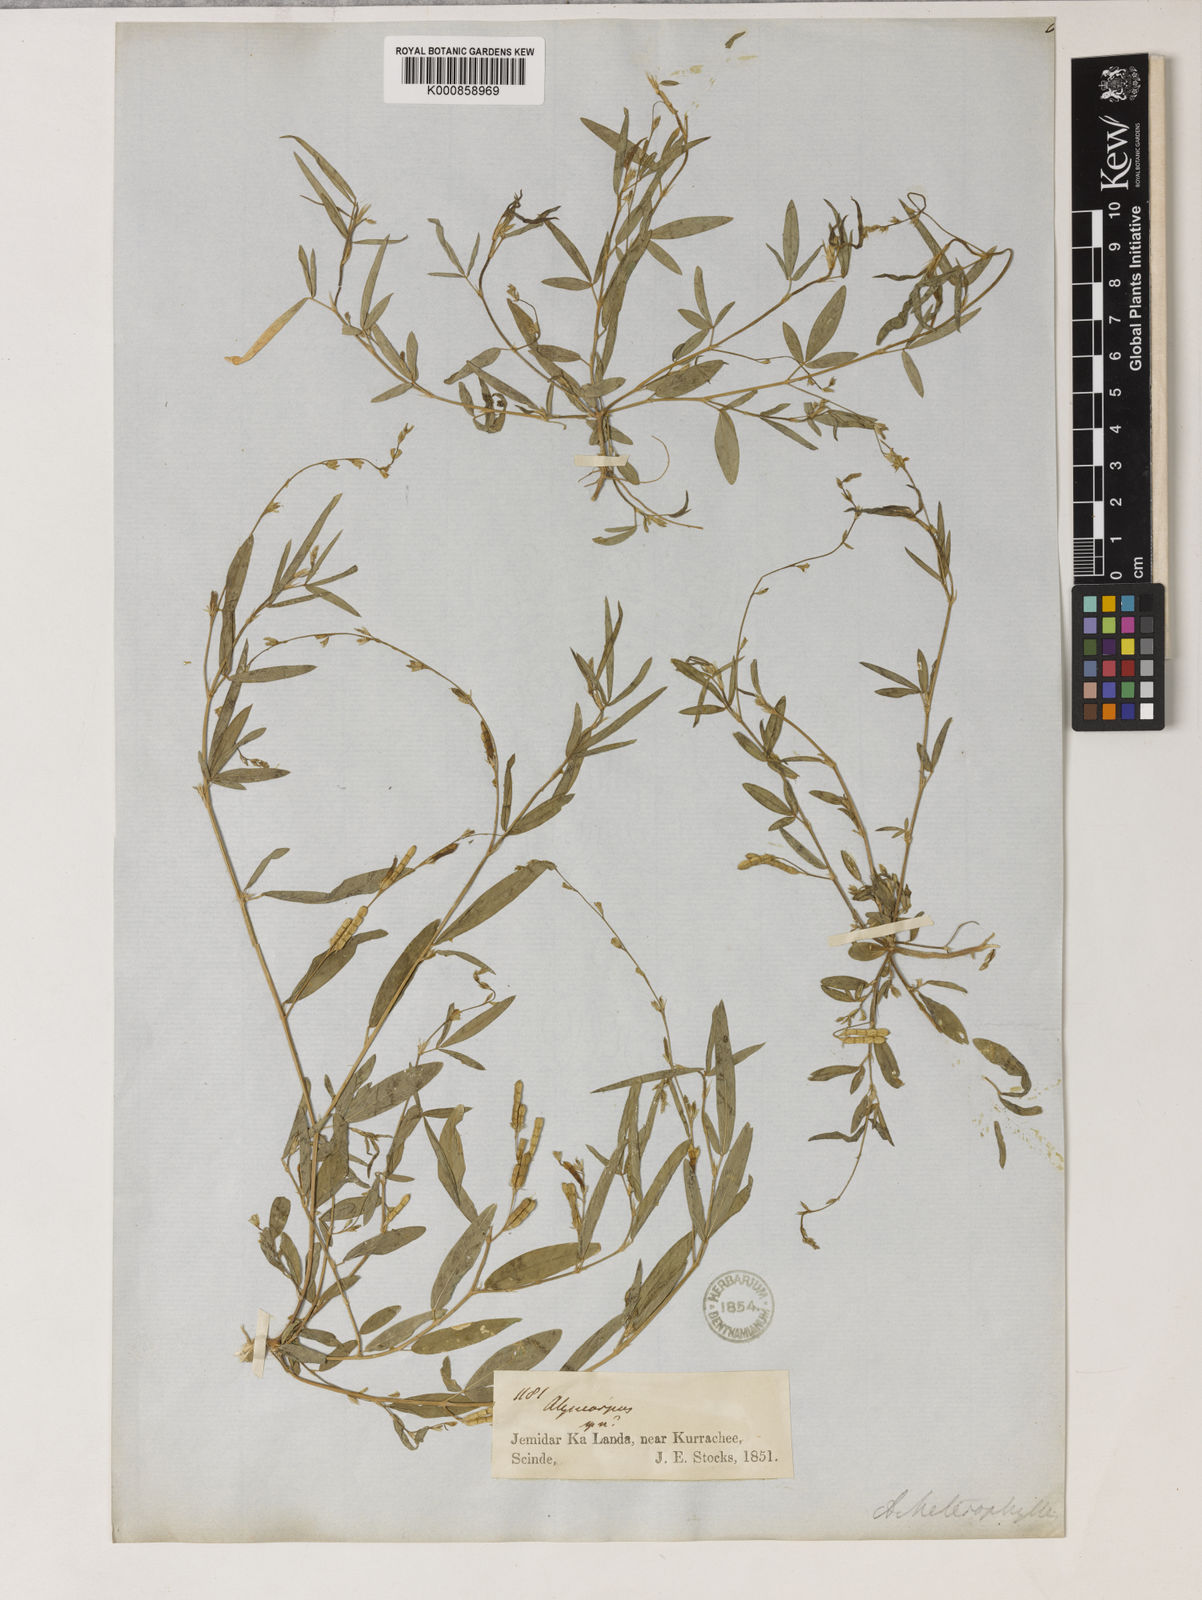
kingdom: Plantae
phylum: Tracheophyta
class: Magnoliopsida
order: Fabales
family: Fabaceae
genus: Alysicarpus
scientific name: Alysicarpus heterophyllus
